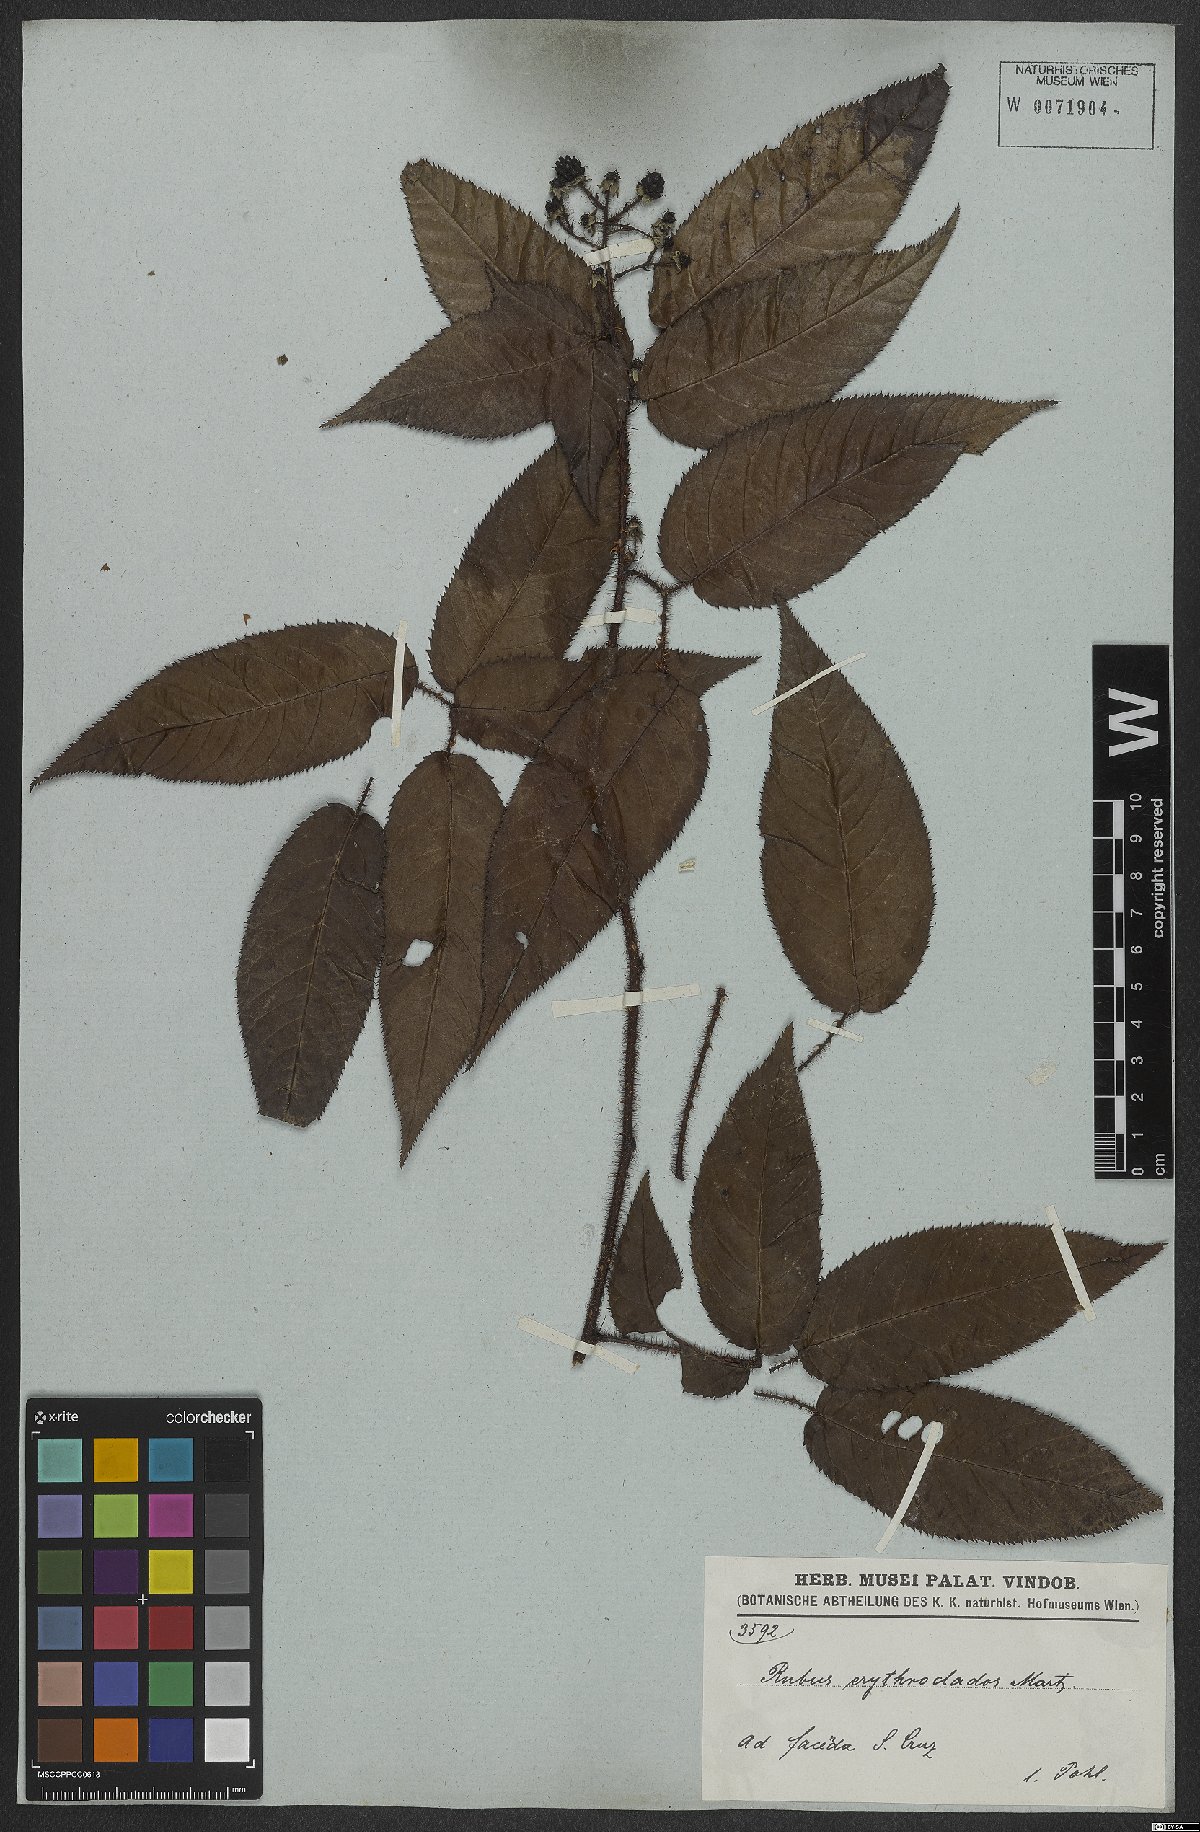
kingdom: Plantae
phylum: Tracheophyta
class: Magnoliopsida
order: Rosales
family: Rosaceae
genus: Rubus
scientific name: Rubus erythroclados
